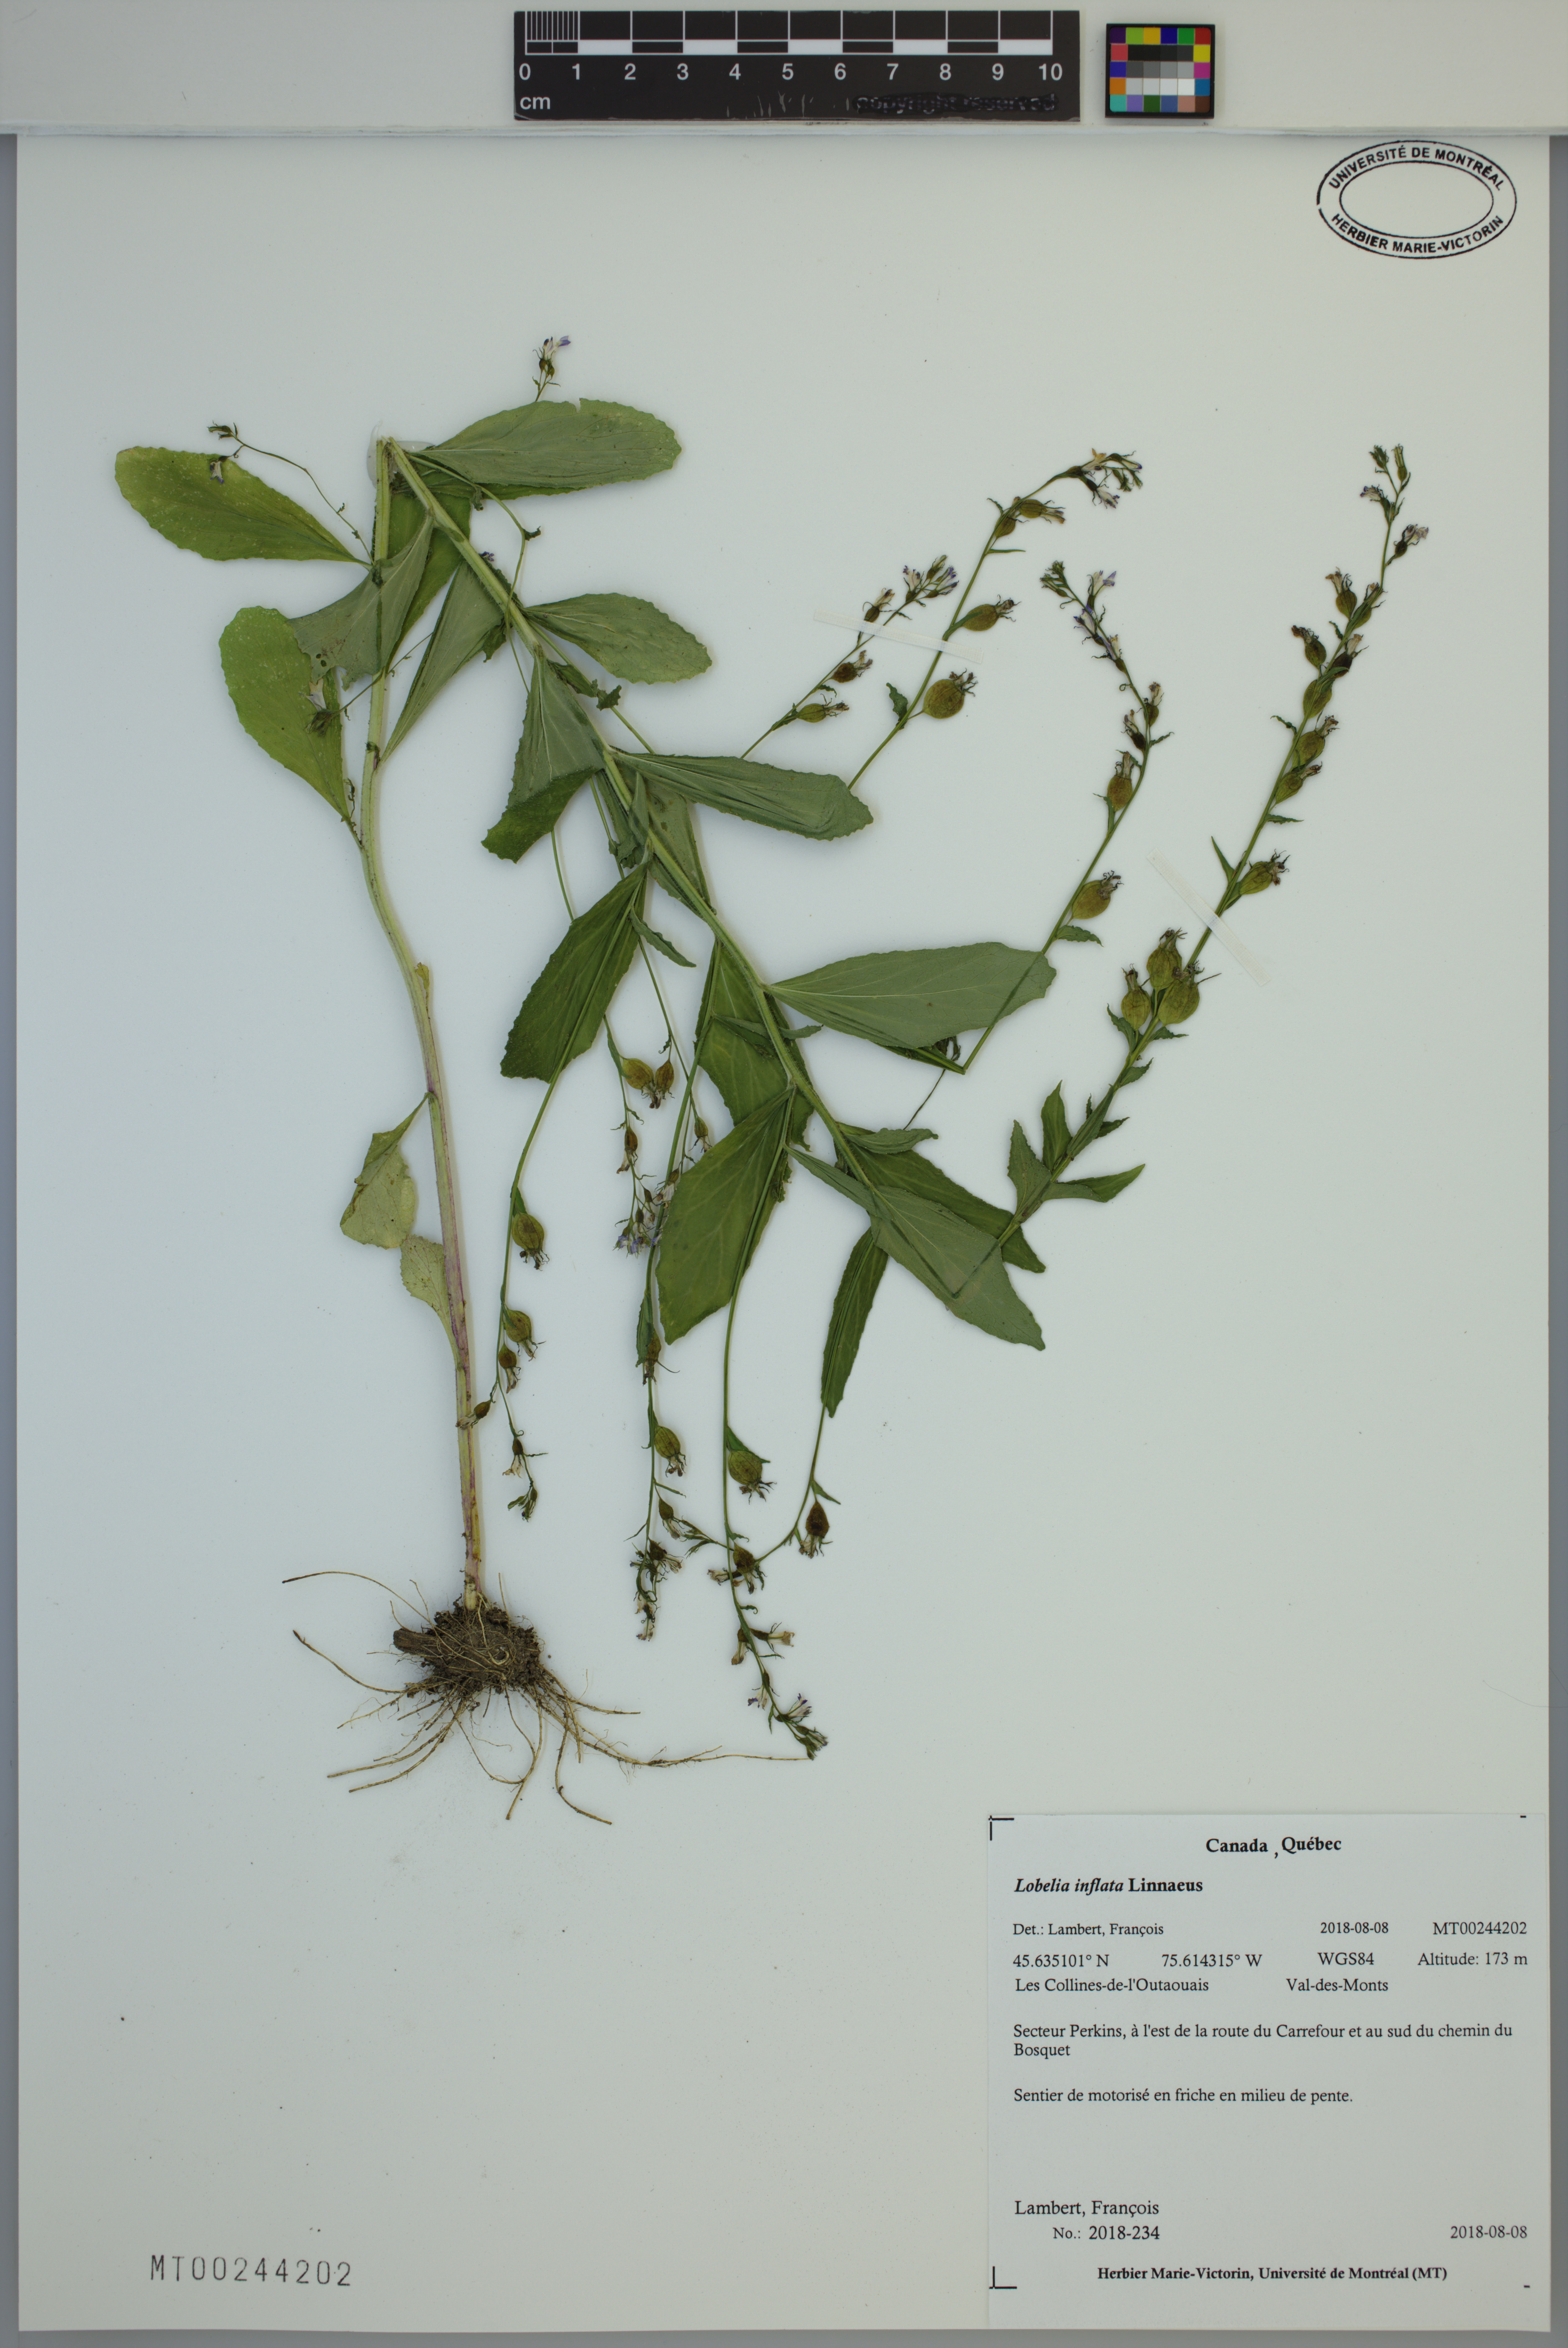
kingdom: Plantae
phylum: Tracheophyta
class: Magnoliopsida
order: Asterales
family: Campanulaceae
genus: Lobelia
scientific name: Lobelia inflata
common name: Indian tobacco
